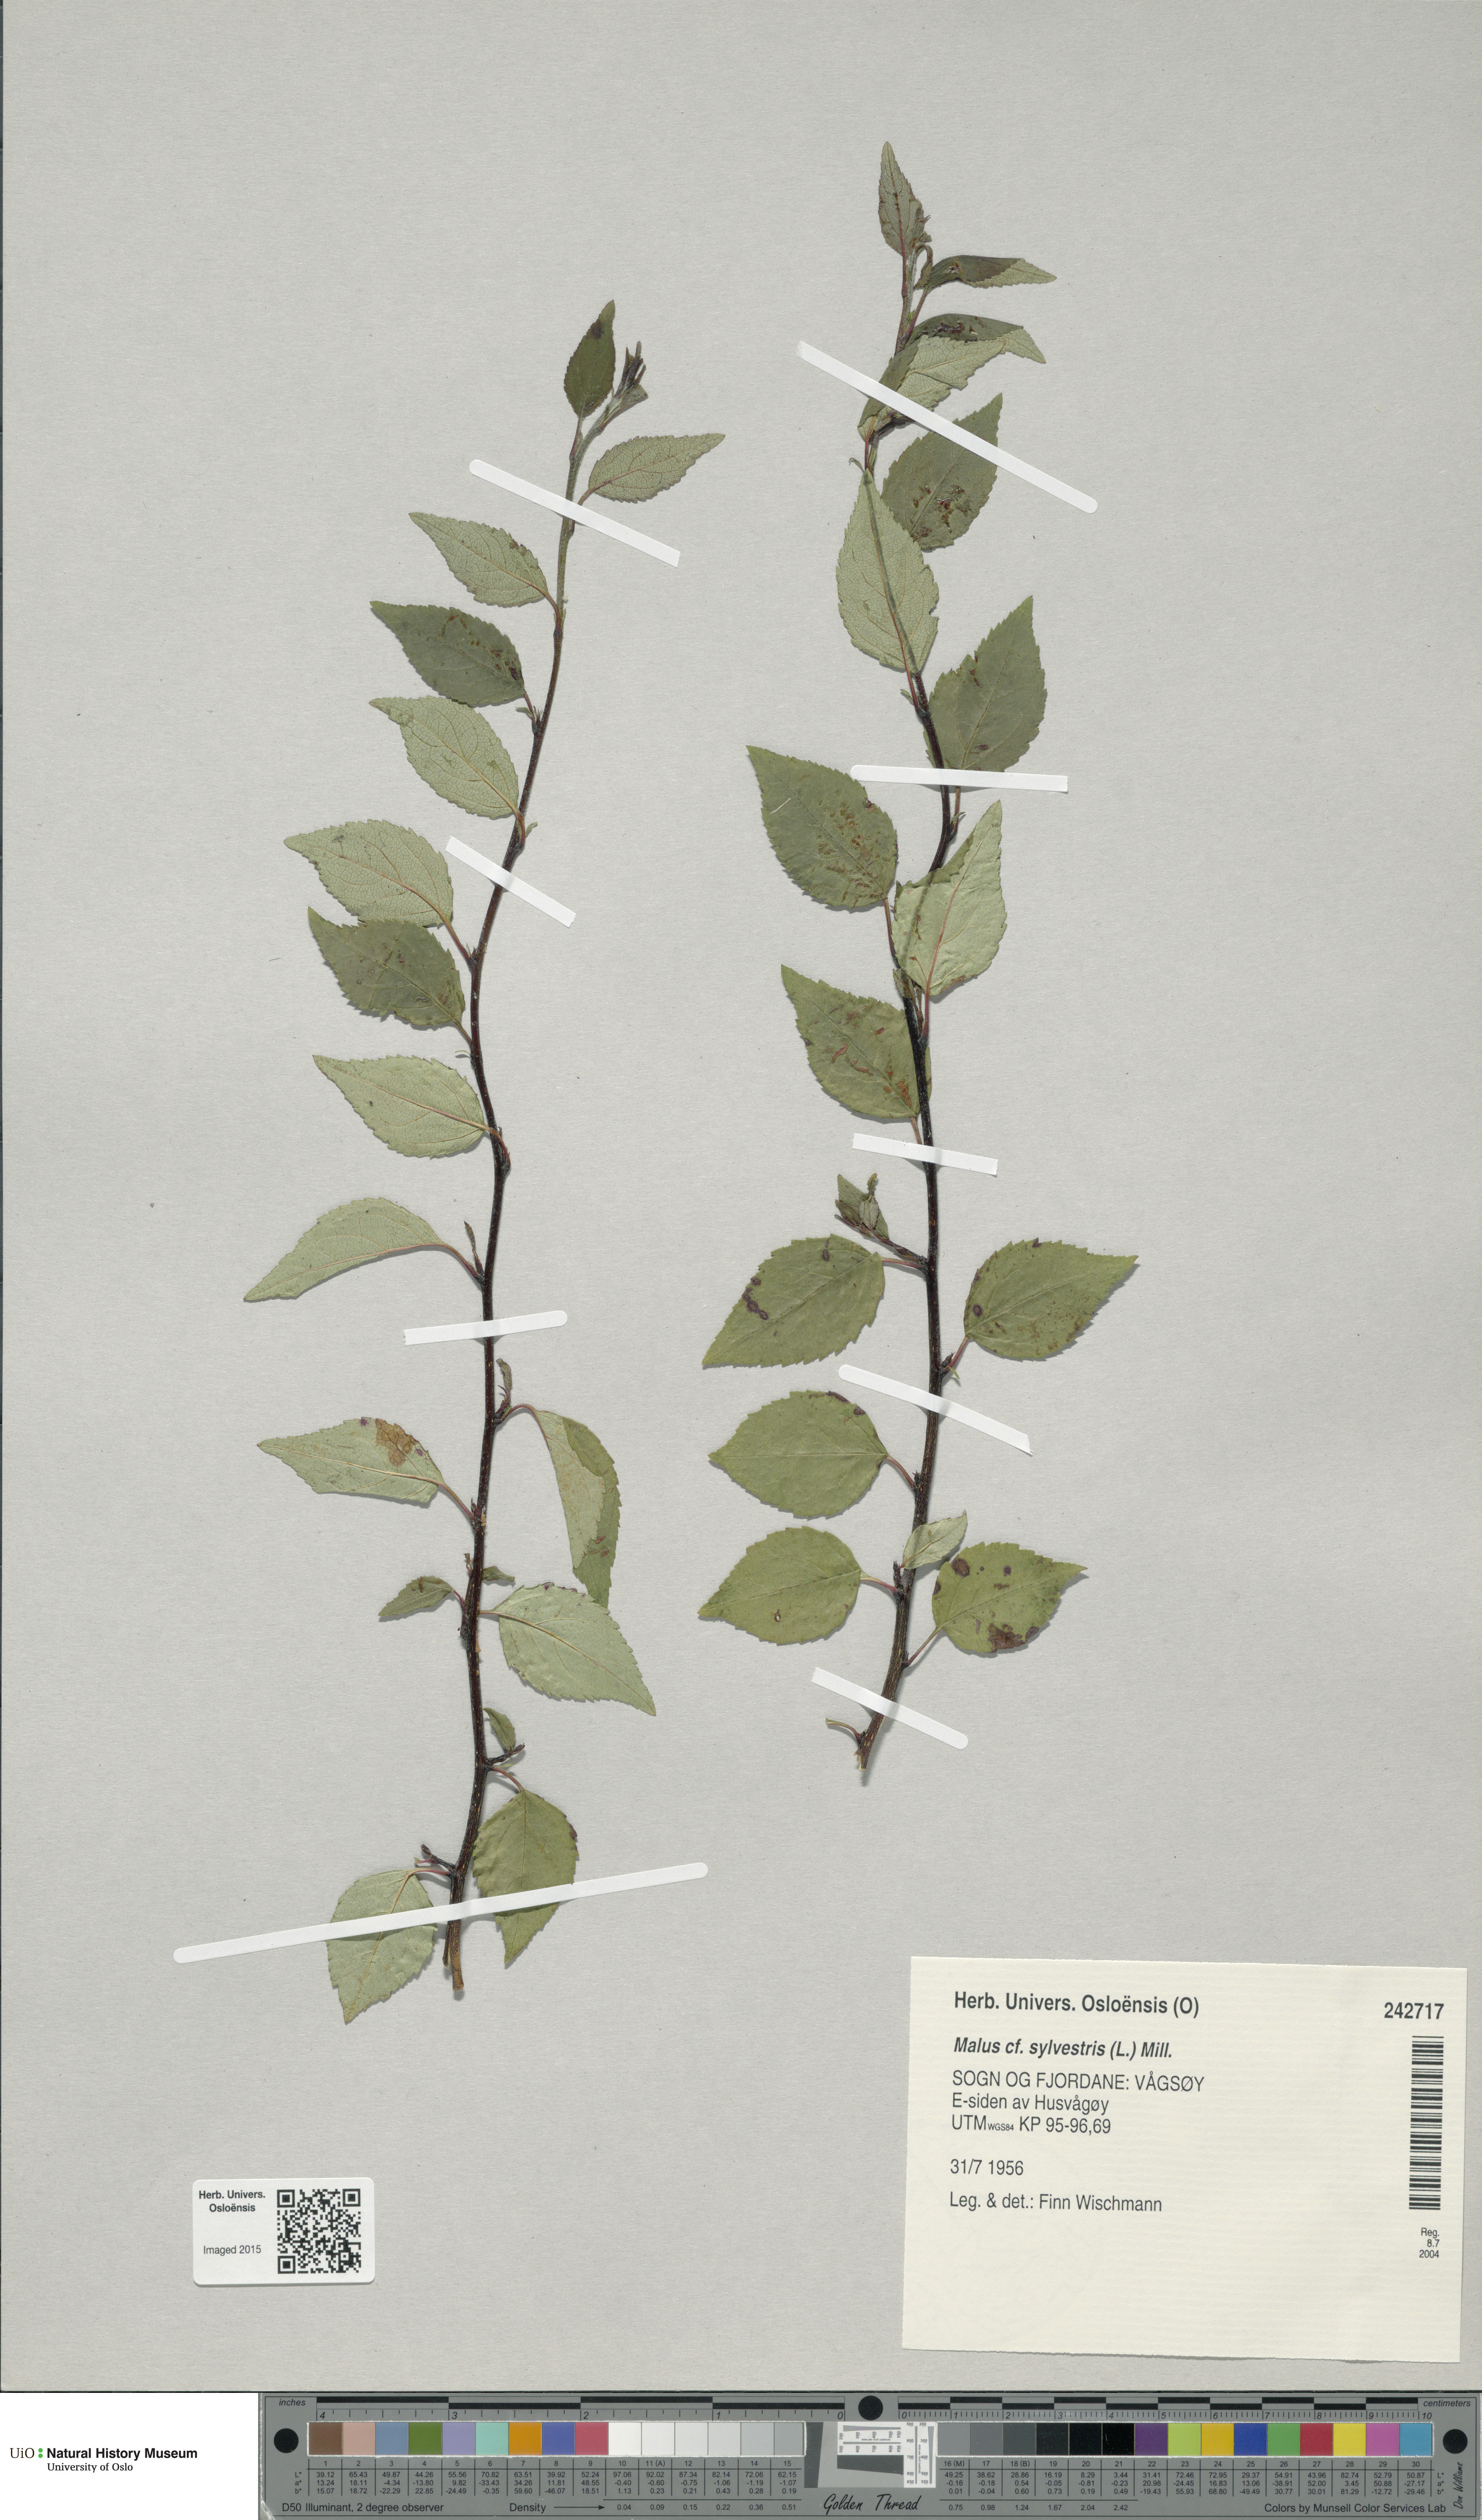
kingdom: Plantae
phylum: Tracheophyta
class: Magnoliopsida
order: Rosales
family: Rosaceae
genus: Malus
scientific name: Malus sylvestris
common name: Crab apple
